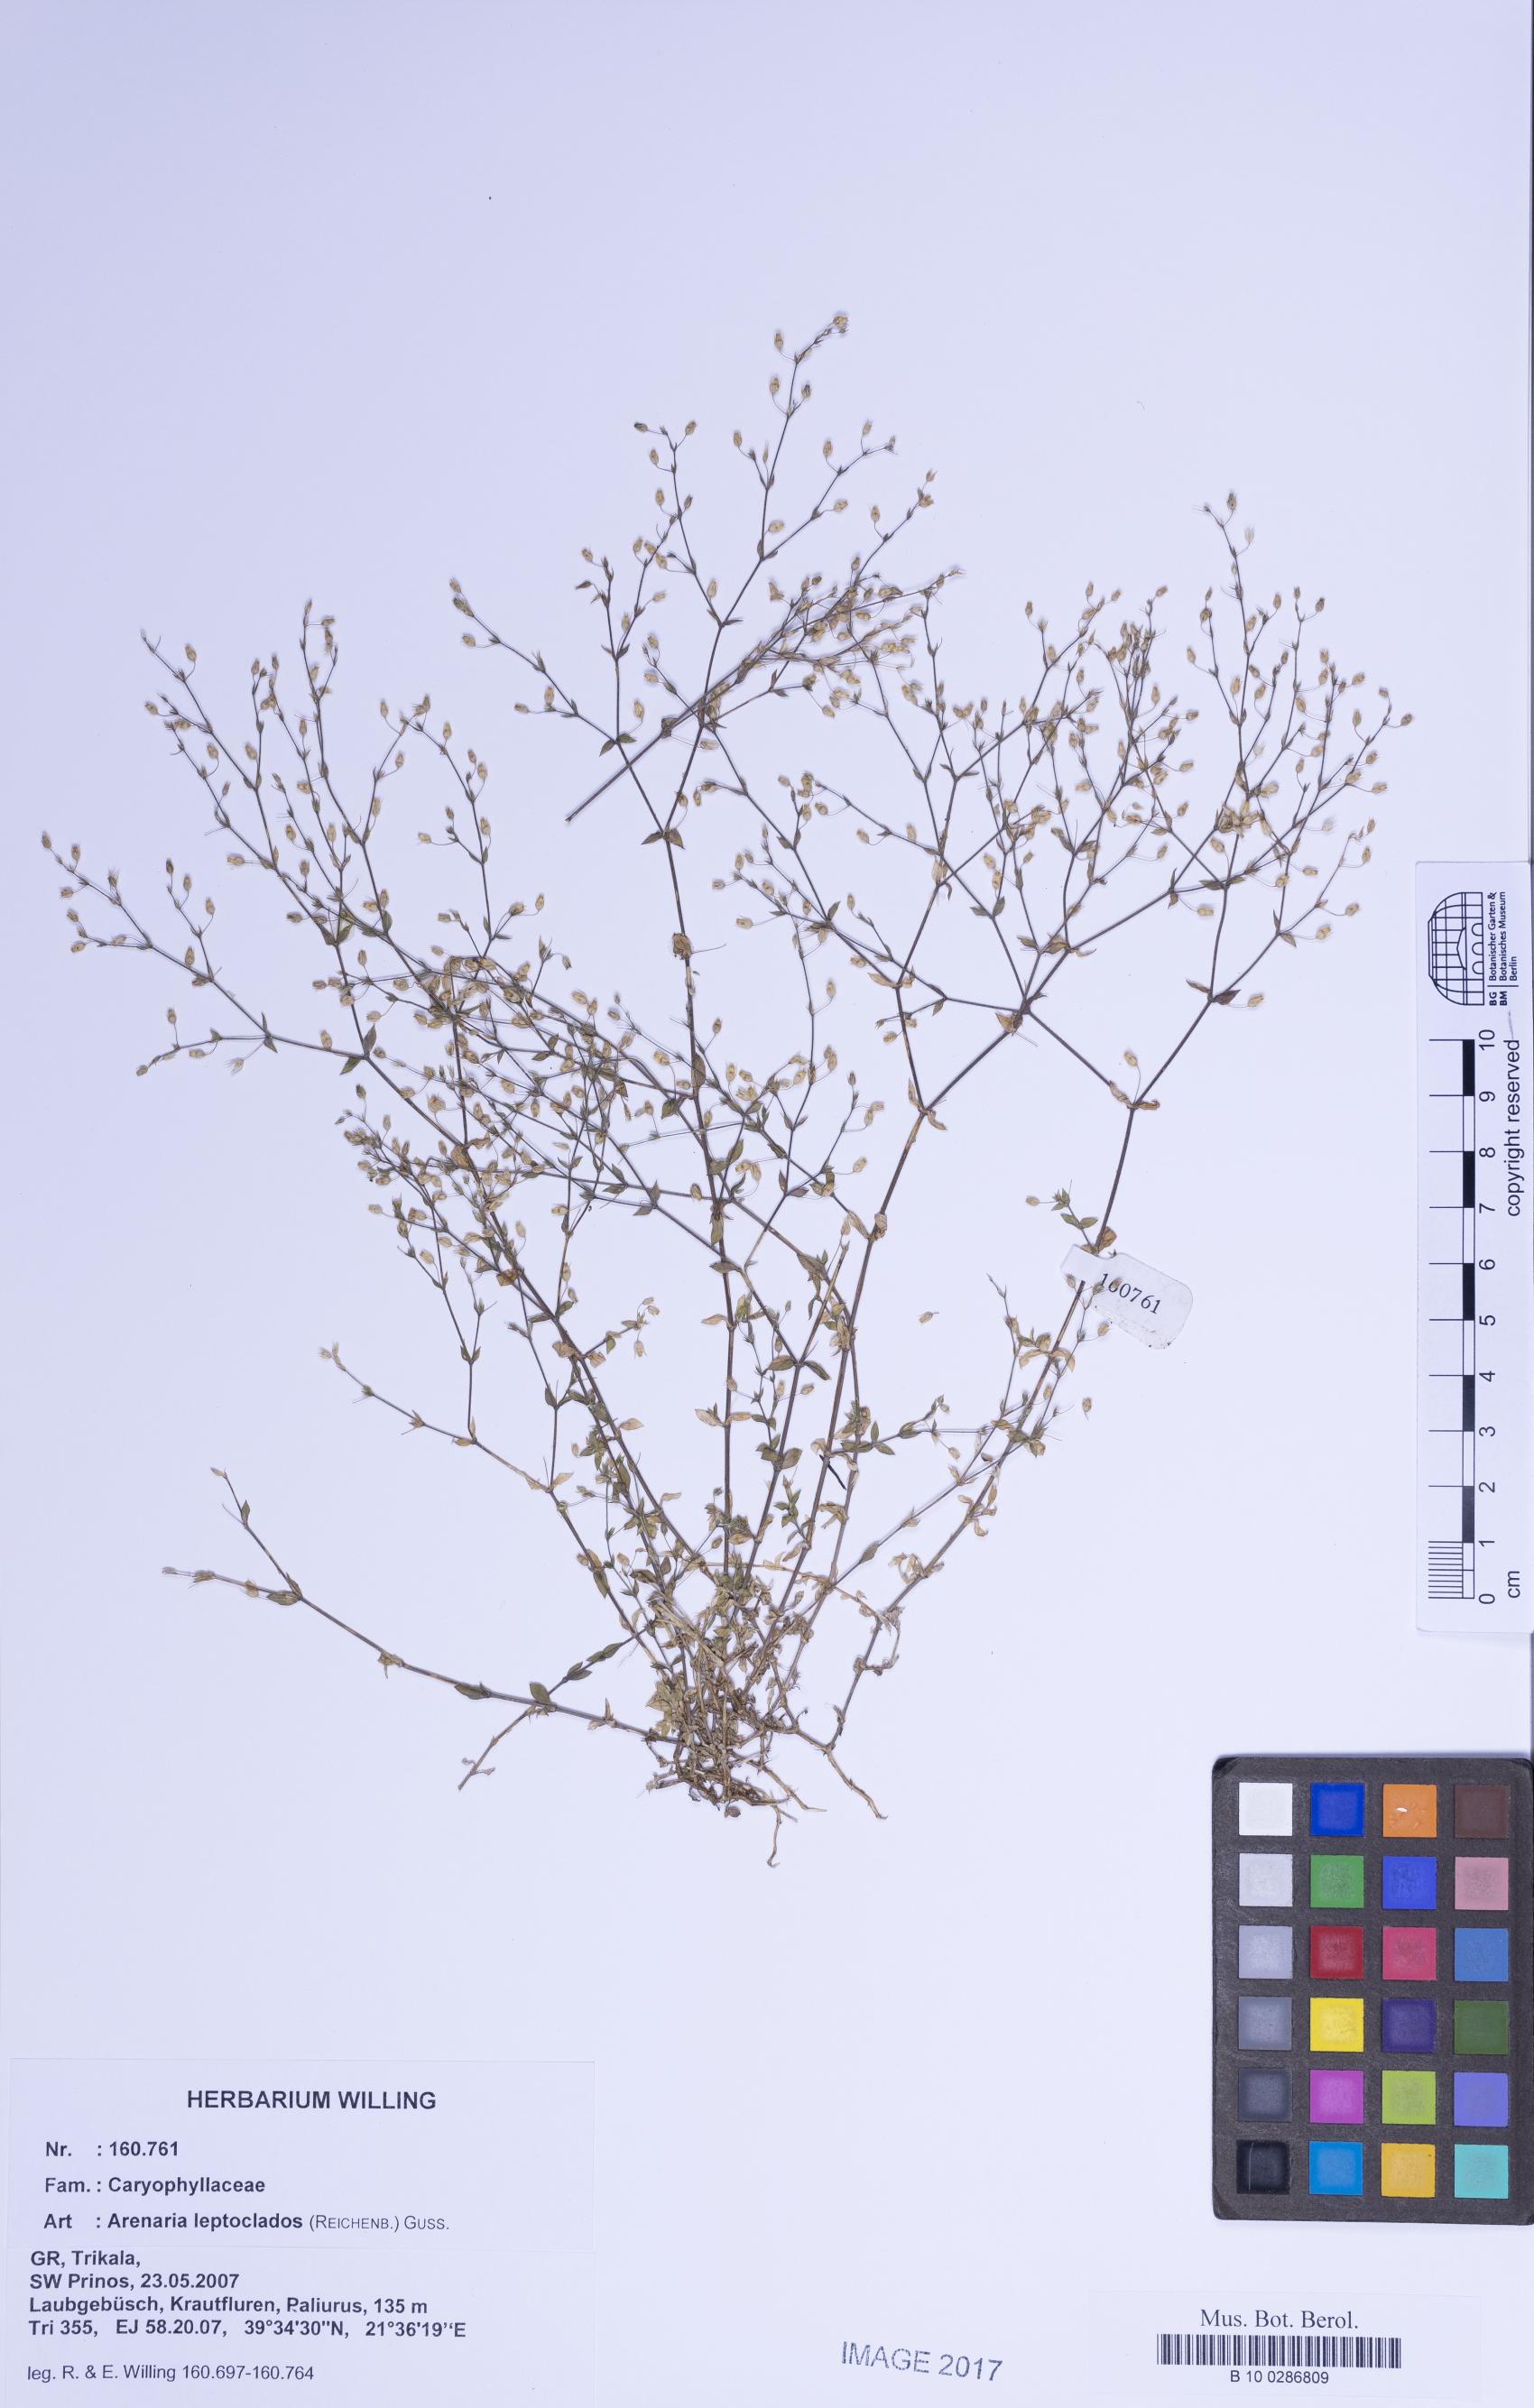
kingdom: Plantae
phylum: Tracheophyta
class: Magnoliopsida
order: Caryophyllales
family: Caryophyllaceae
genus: Arenaria
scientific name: Arenaria leptoclados
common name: Thyme-leaved sandwort
